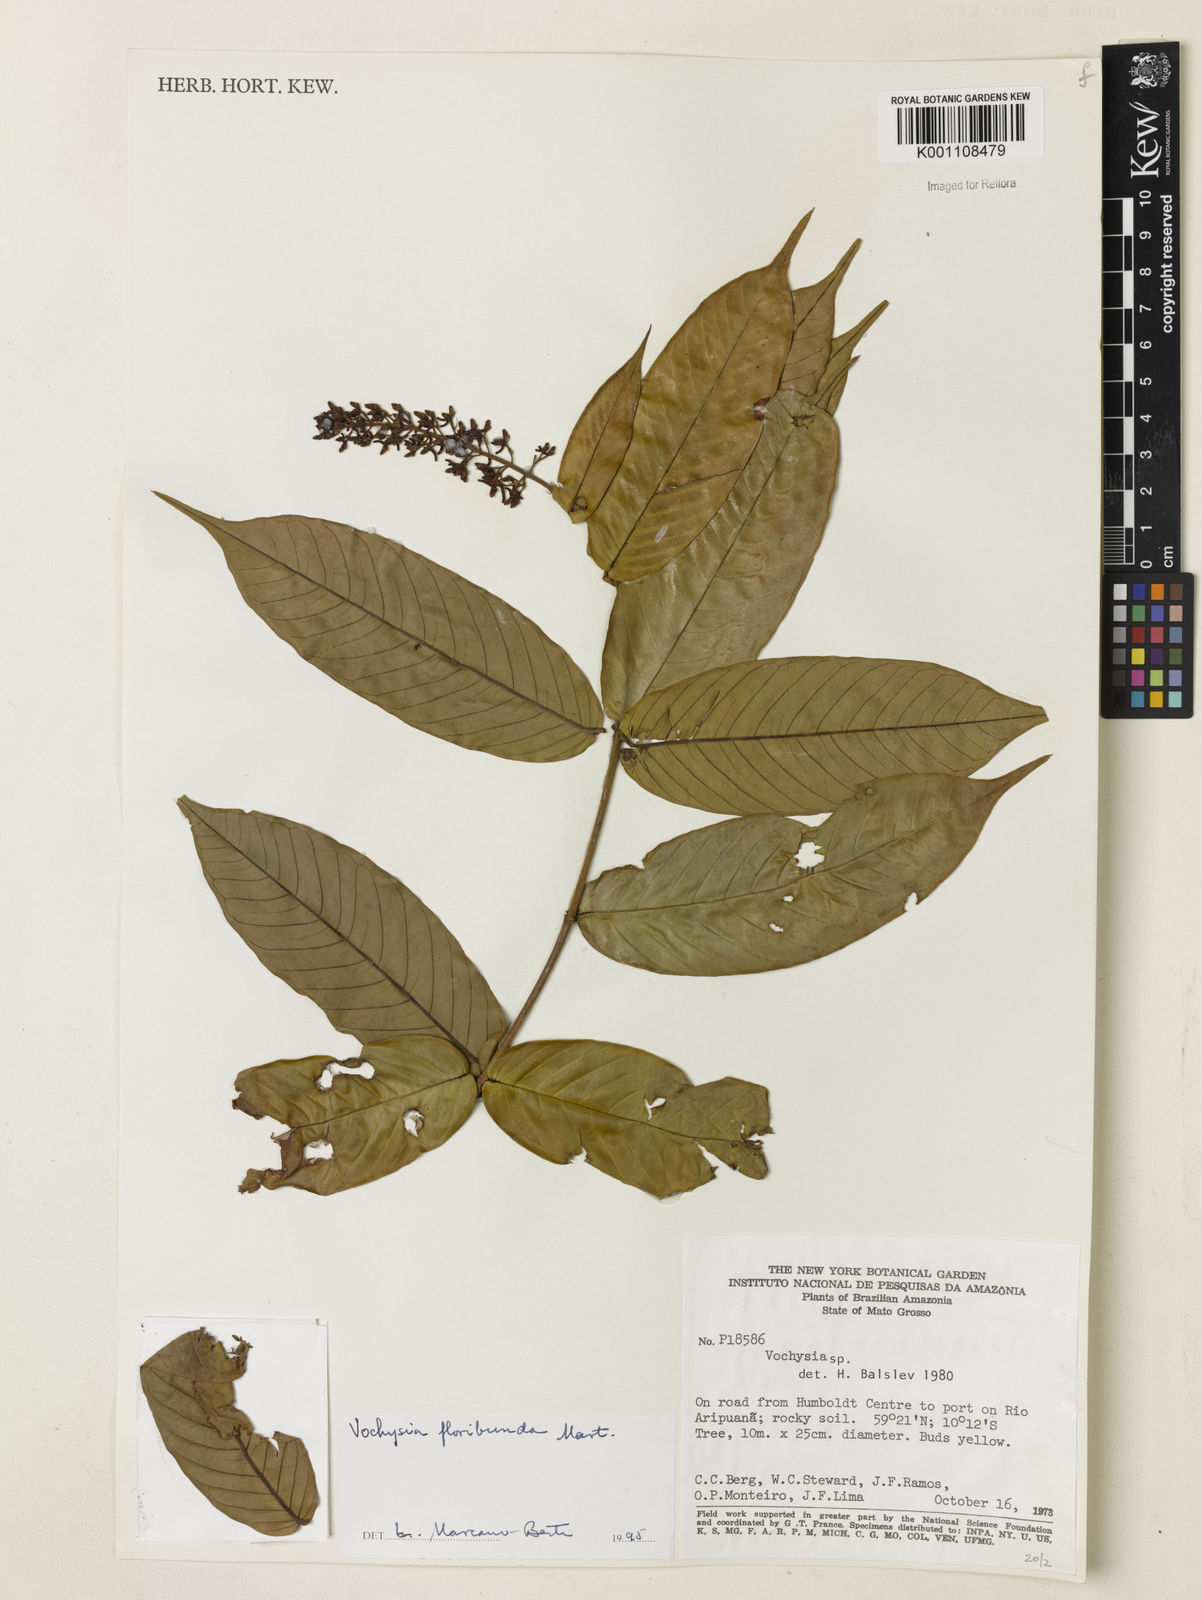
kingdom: Plantae
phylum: Tracheophyta
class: Magnoliopsida
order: Myrtales
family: Vochysiaceae
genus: Vochysia
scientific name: Vochysia floribunda
